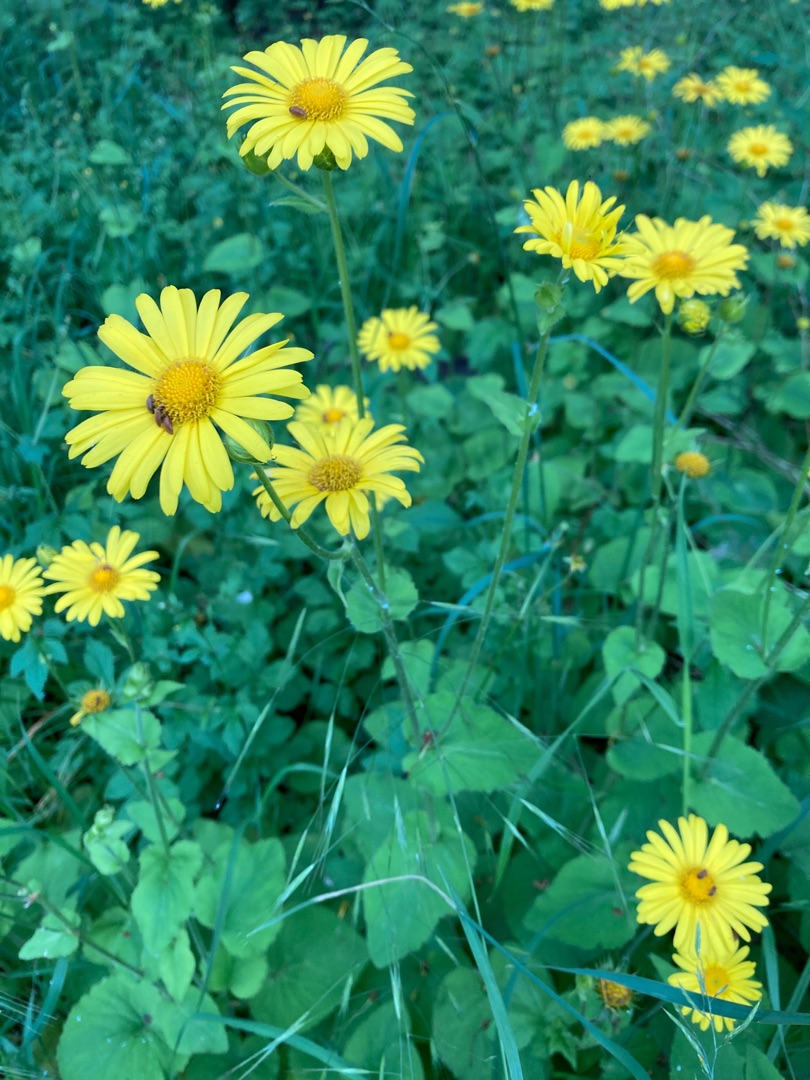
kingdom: Plantae
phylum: Tracheophyta
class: Magnoliopsida
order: Asterales
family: Asteraceae
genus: Doronicum
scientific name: Doronicum pardalianches
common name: Hjertebladet gemserod
